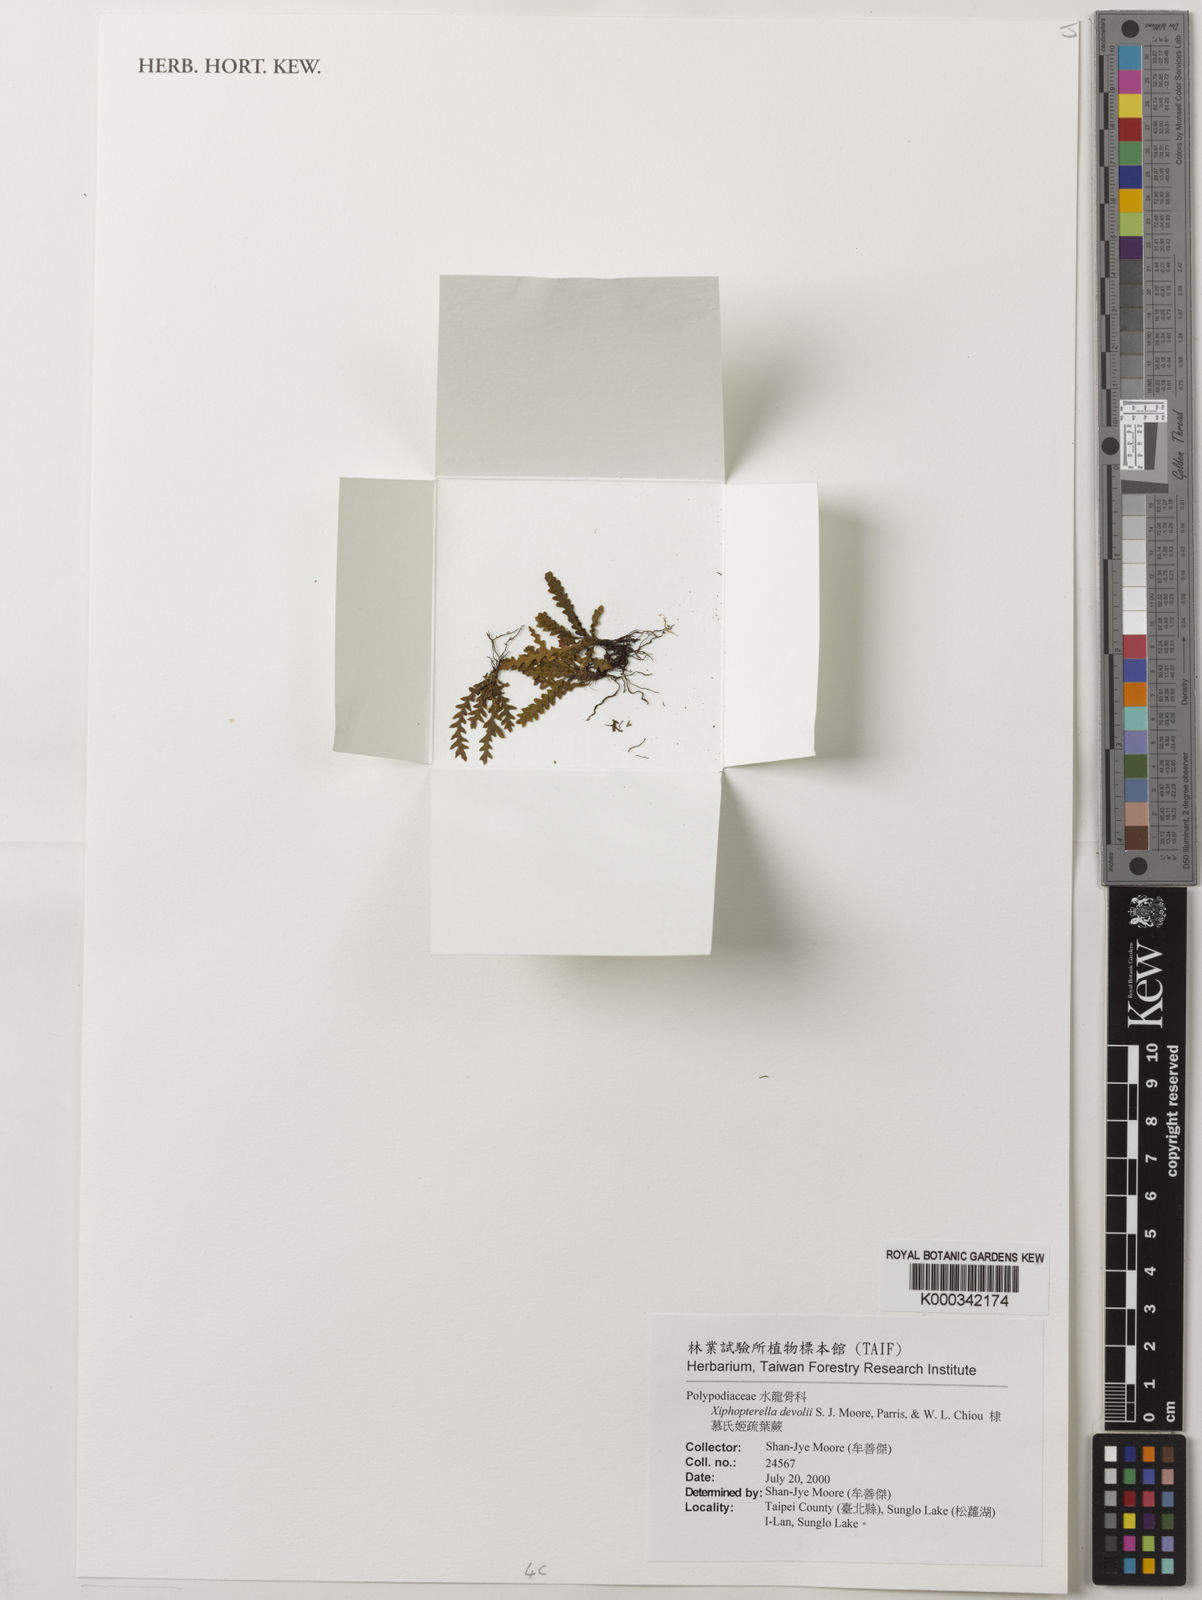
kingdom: Plantae
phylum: Tracheophyta
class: Polypodiopsida
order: Polypodiales
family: Polypodiaceae
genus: Xiphopterella
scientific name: Xiphopterella devolii
